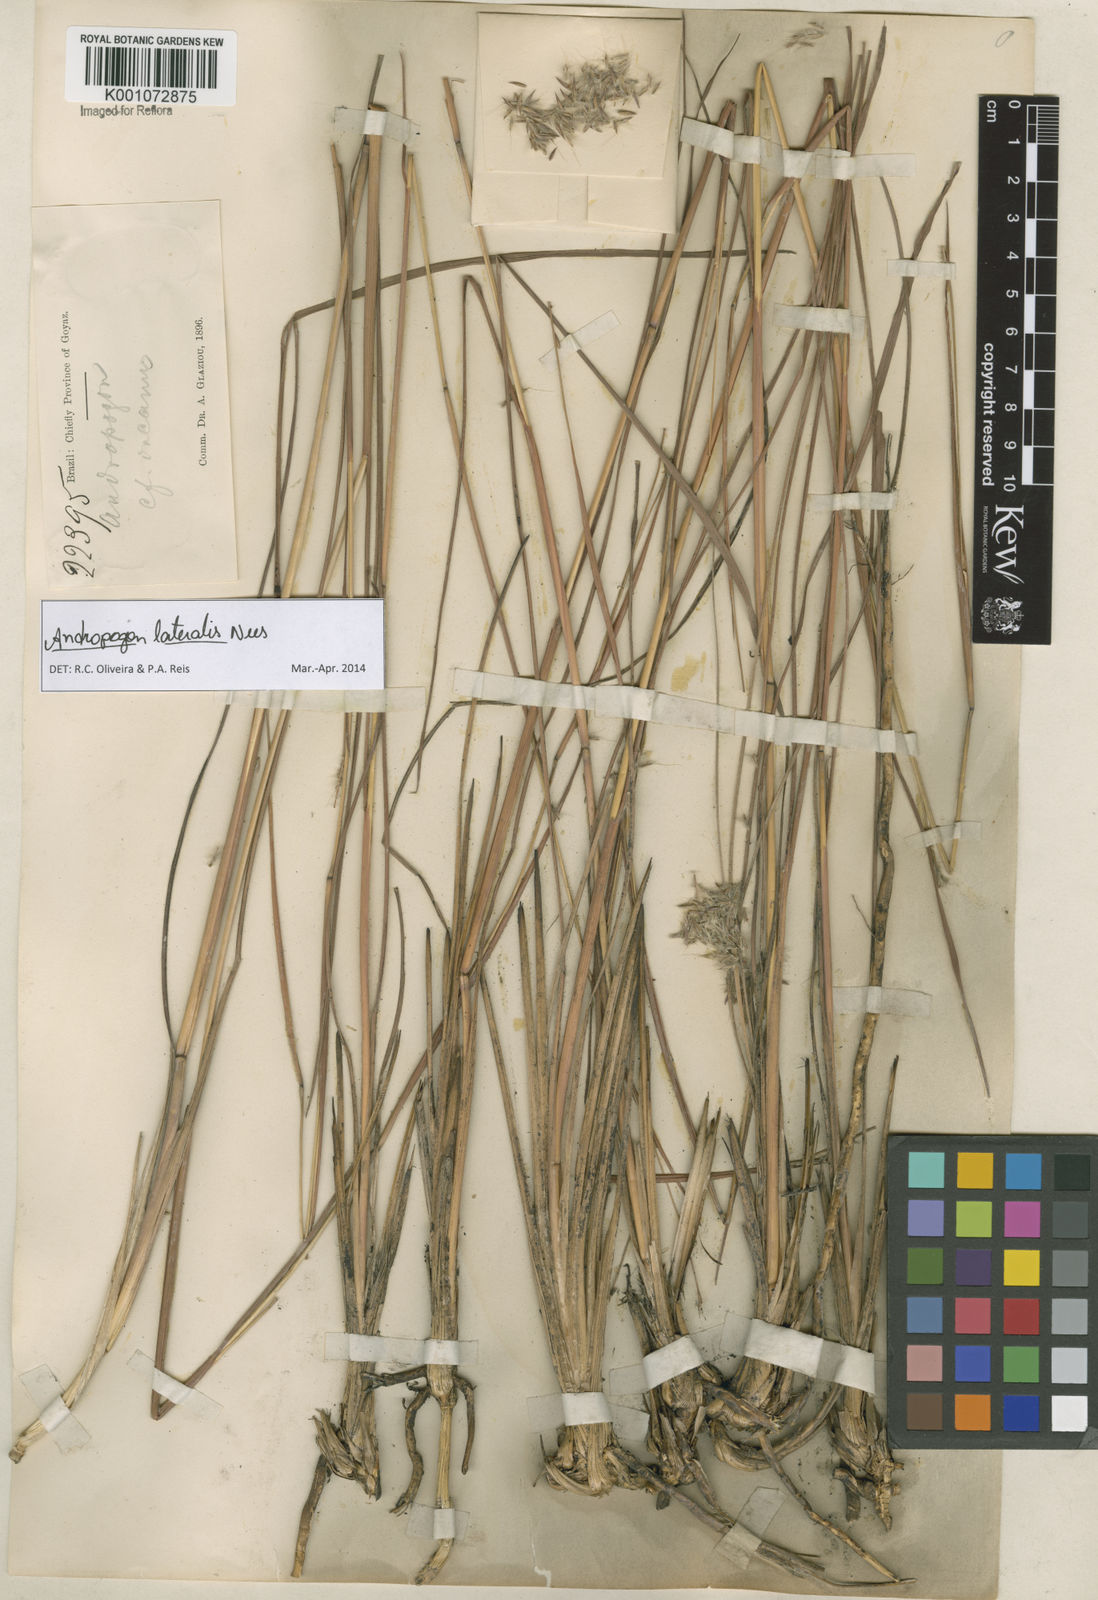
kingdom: Plantae
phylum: Tracheophyta
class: Liliopsida
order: Poales
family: Poaceae
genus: Andropogon
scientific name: Andropogon lateralis
